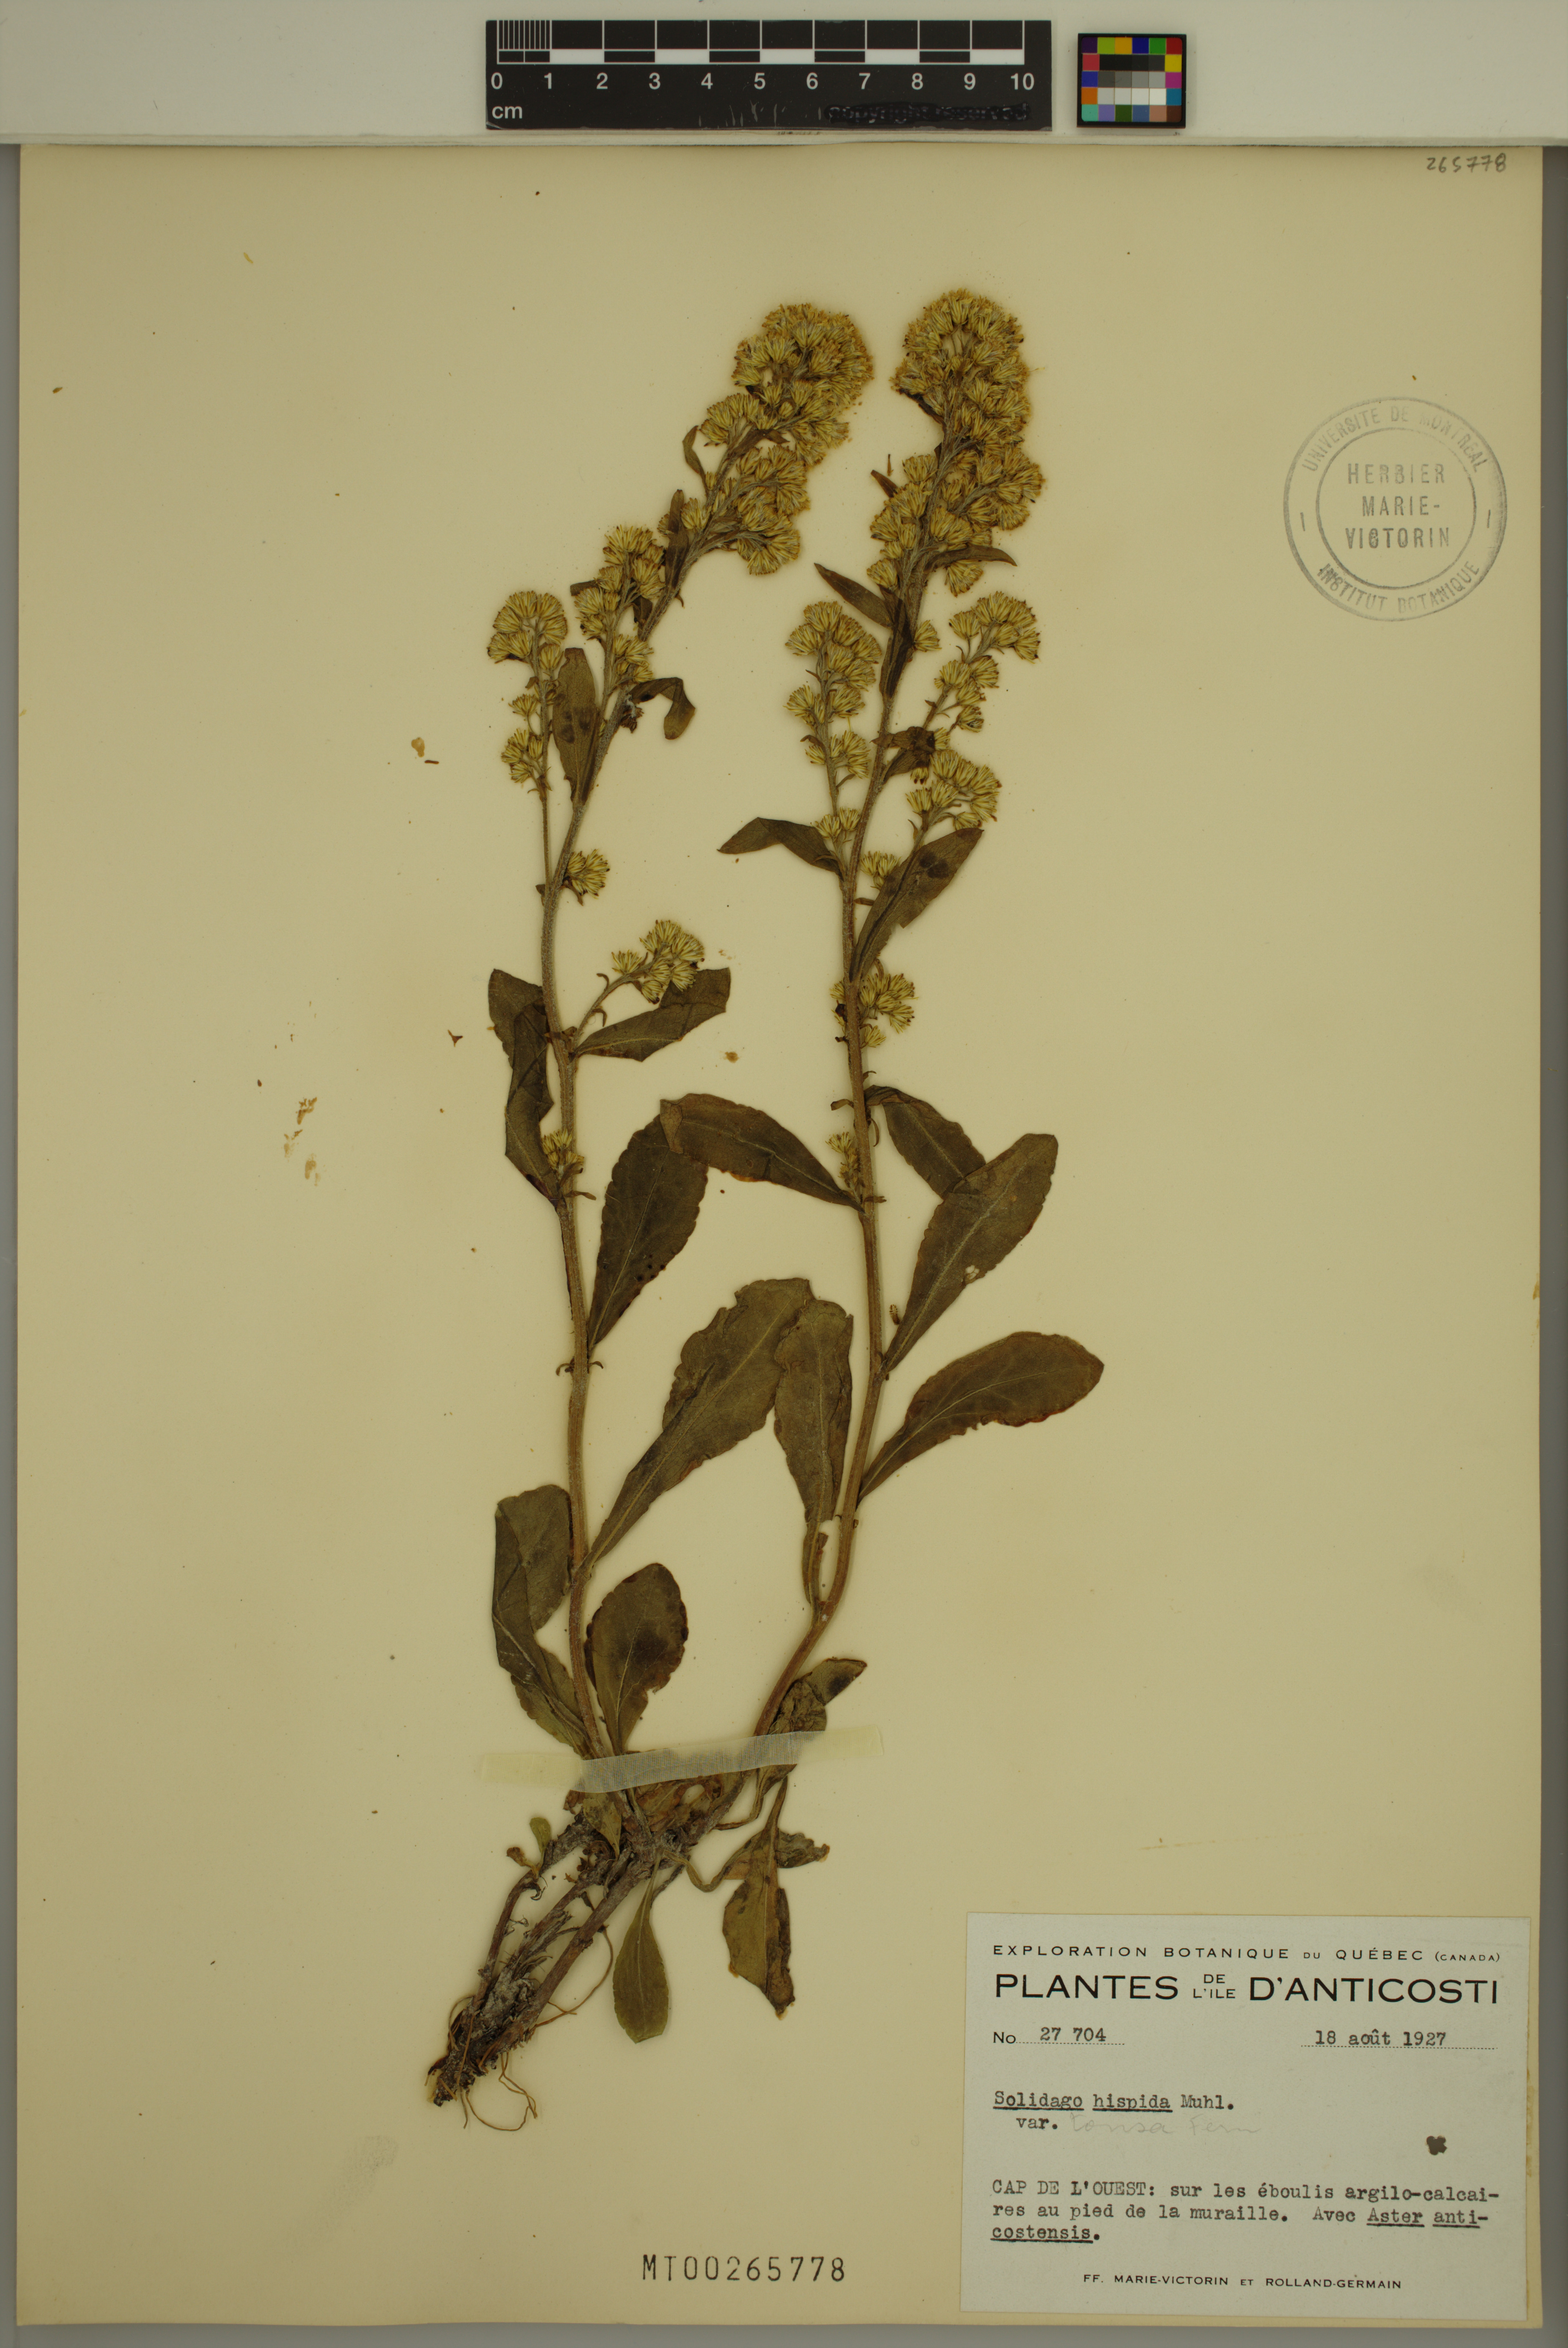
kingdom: Plantae
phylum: Tracheophyta
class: Magnoliopsida
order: Asterales
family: Asteraceae
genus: Solidago
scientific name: Solidago hispida
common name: Hairy goldenrod
